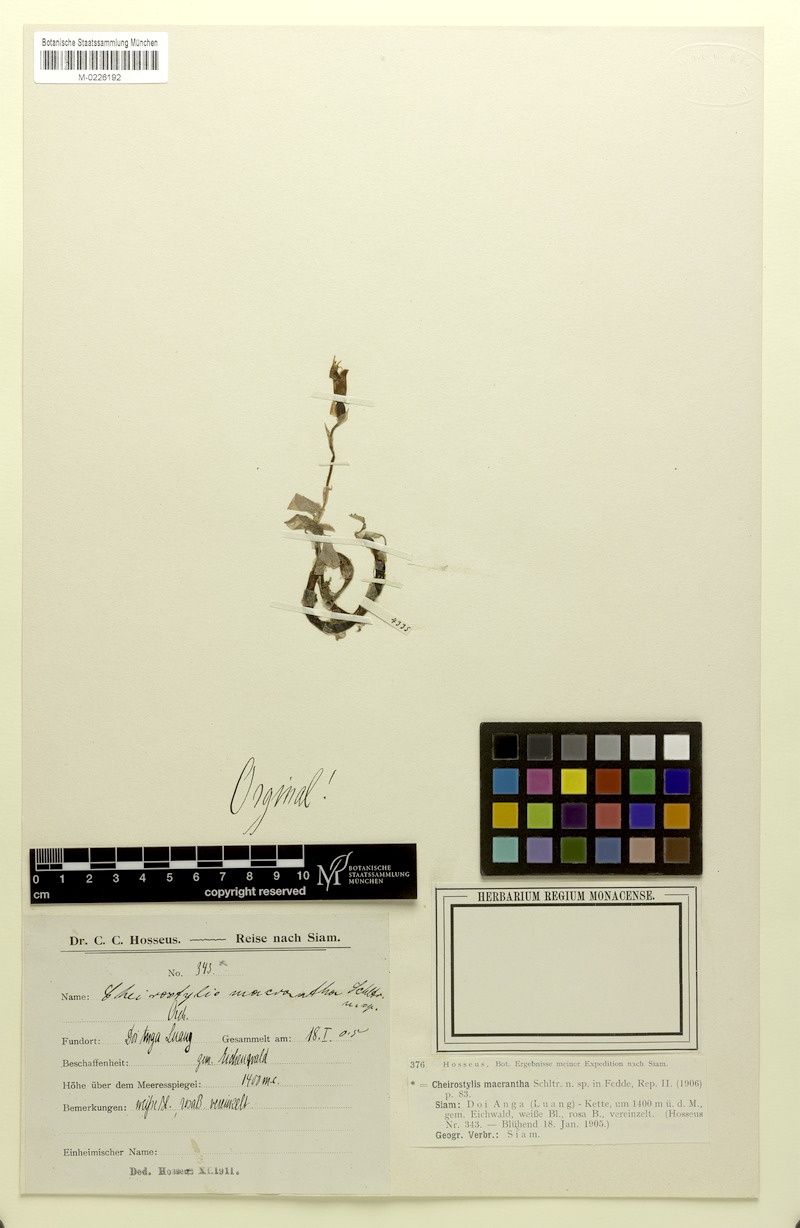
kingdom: Plantae
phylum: Tracheophyta
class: Liliopsida
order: Asparagales
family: Orchidaceae
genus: Cheirostylis
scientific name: Cheirostylis griffithii
